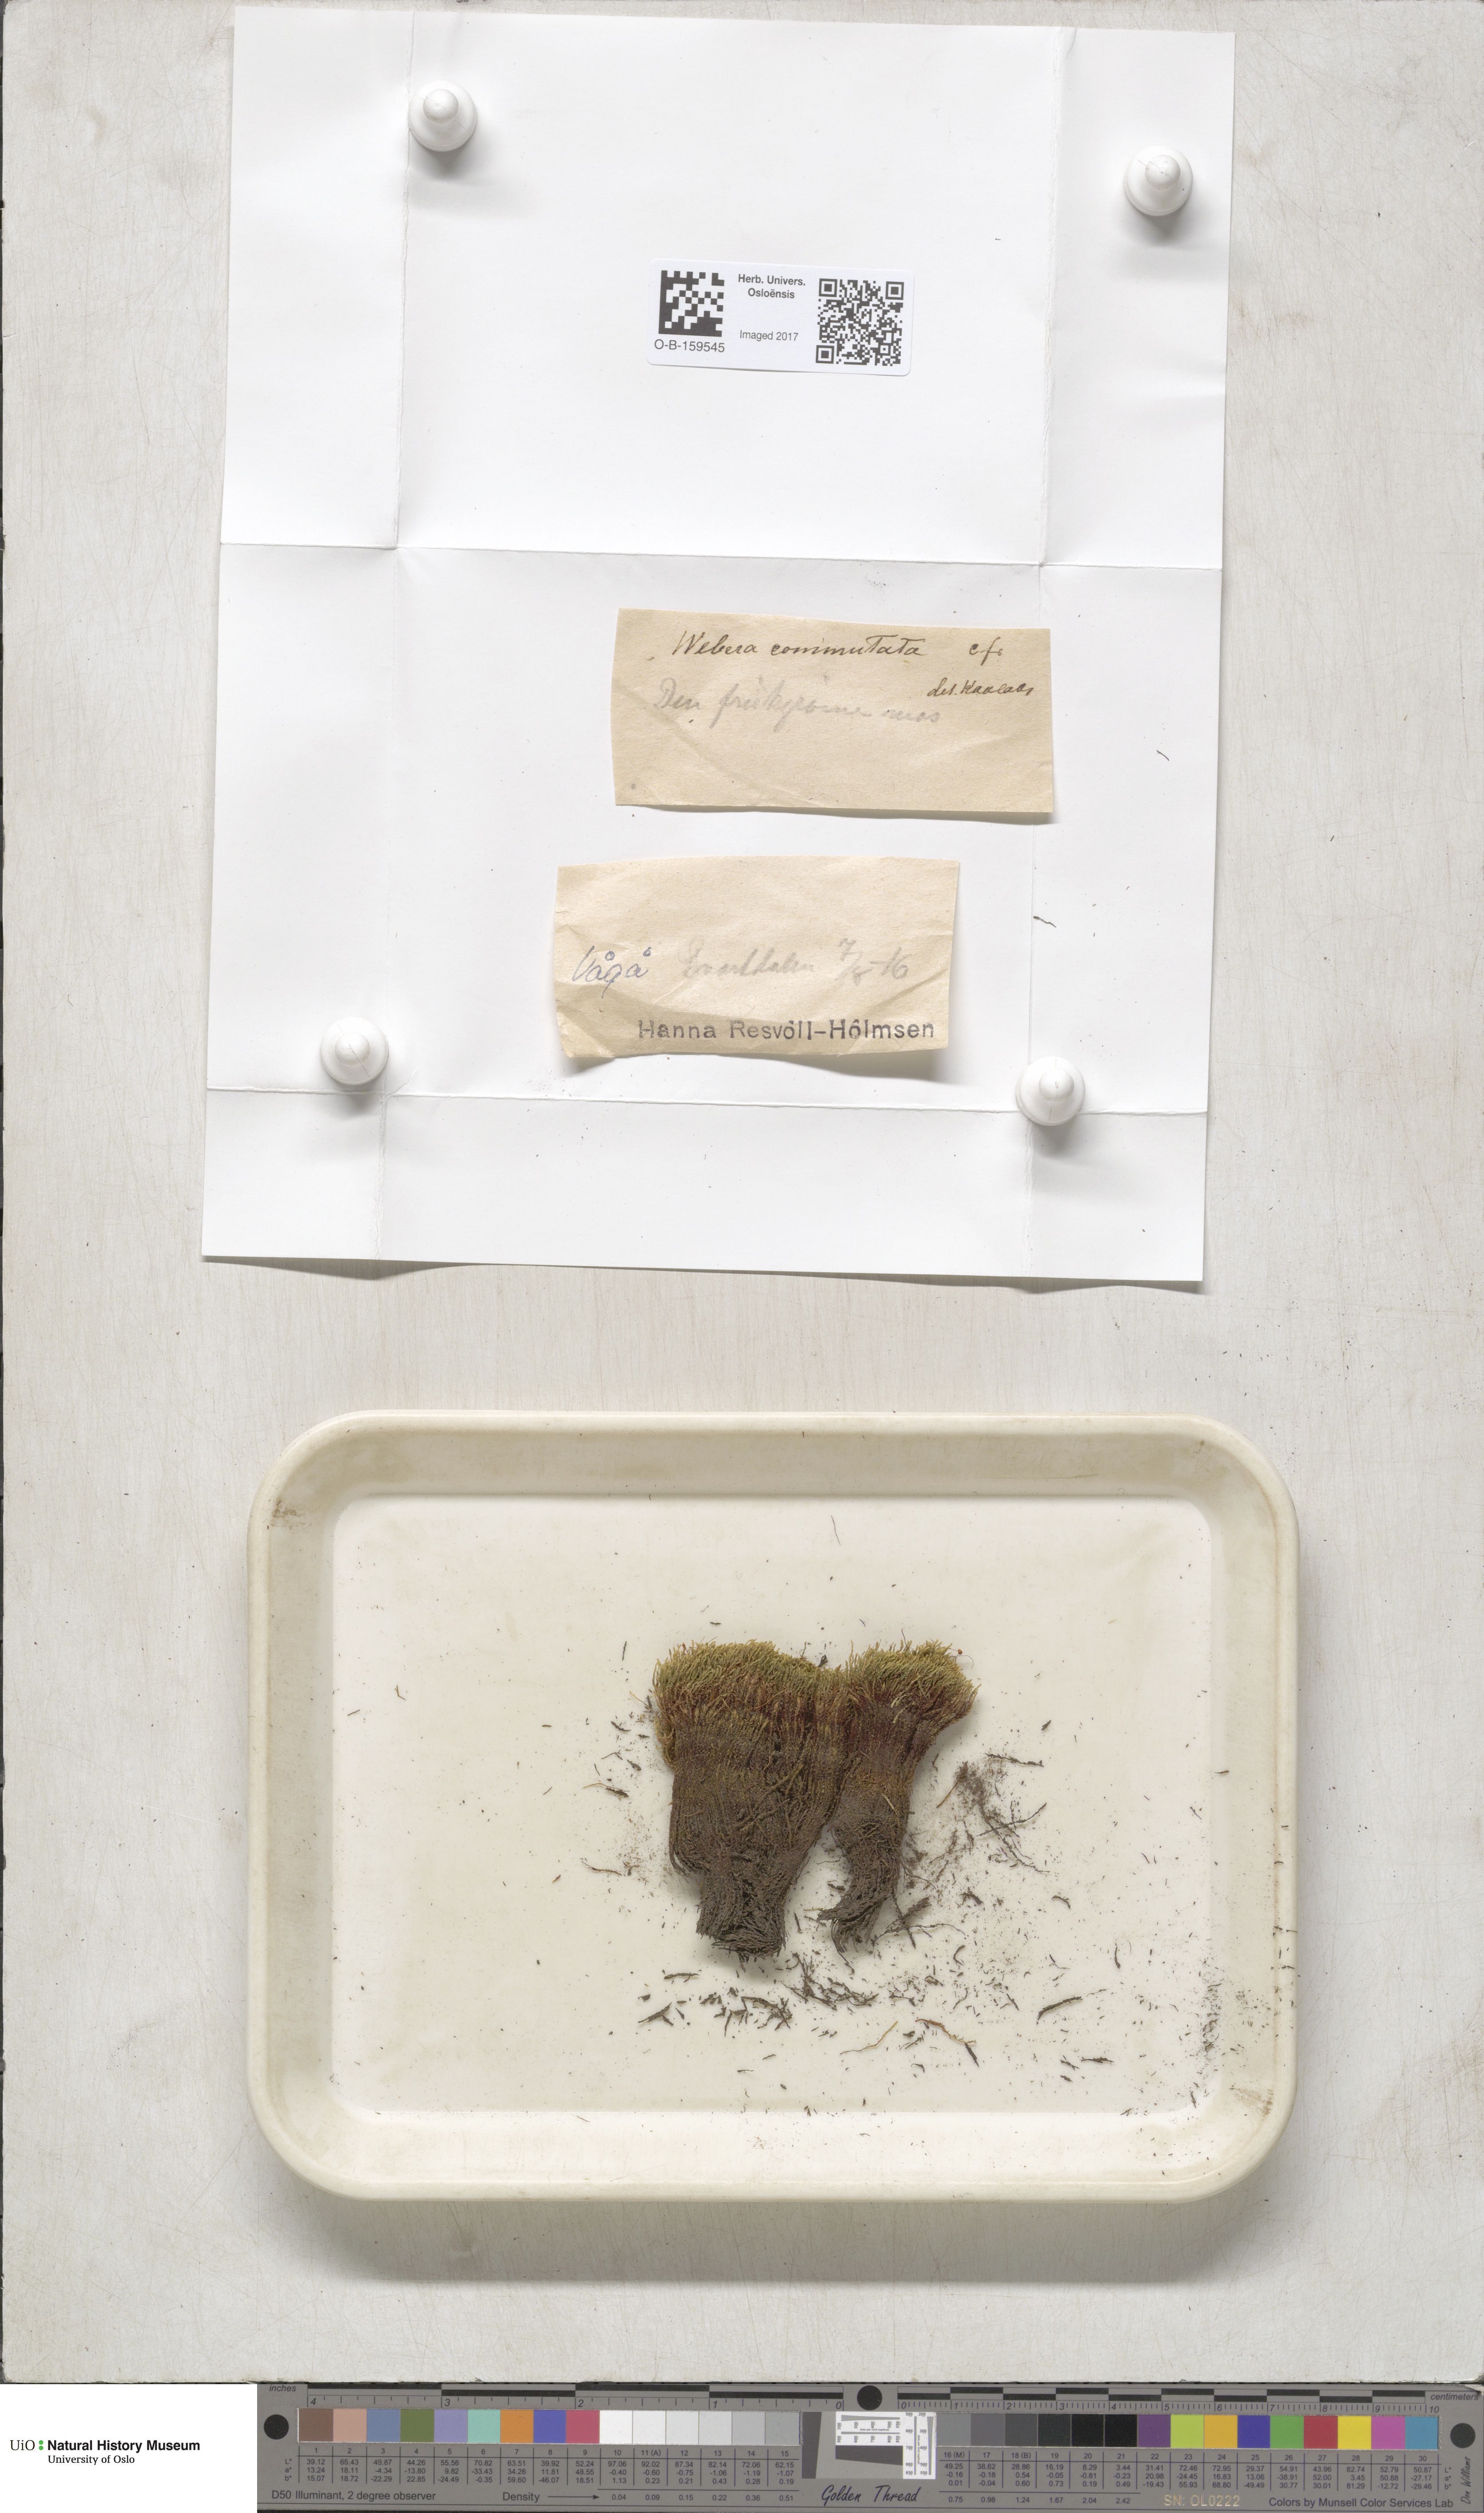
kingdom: Plantae
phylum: Bryophyta
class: Bryopsida
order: Bryales
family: Mniaceae
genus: Pohlia
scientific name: Pohlia drummondii
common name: Drummond's nodding moss
